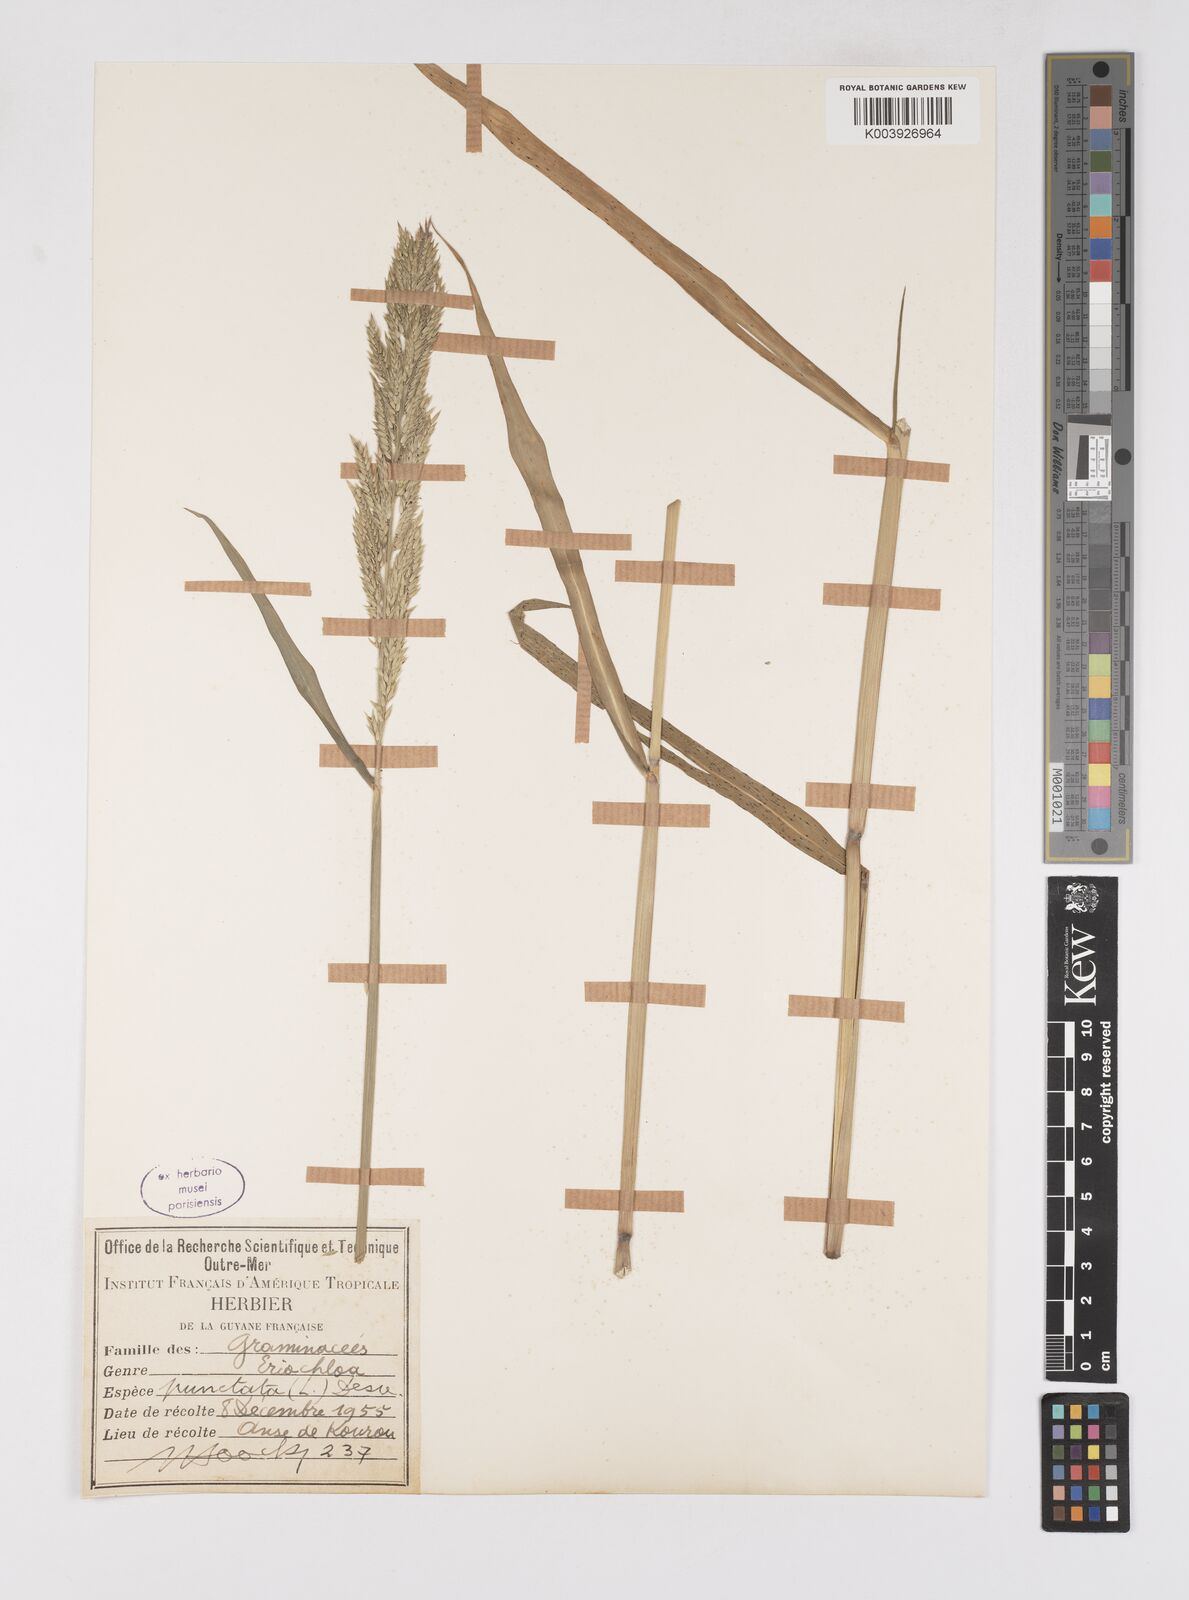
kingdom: Plantae
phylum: Tracheophyta
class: Liliopsida
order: Poales
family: Poaceae
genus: Eriochloa
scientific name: Eriochloa punctata
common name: Louisiana cupgrass
